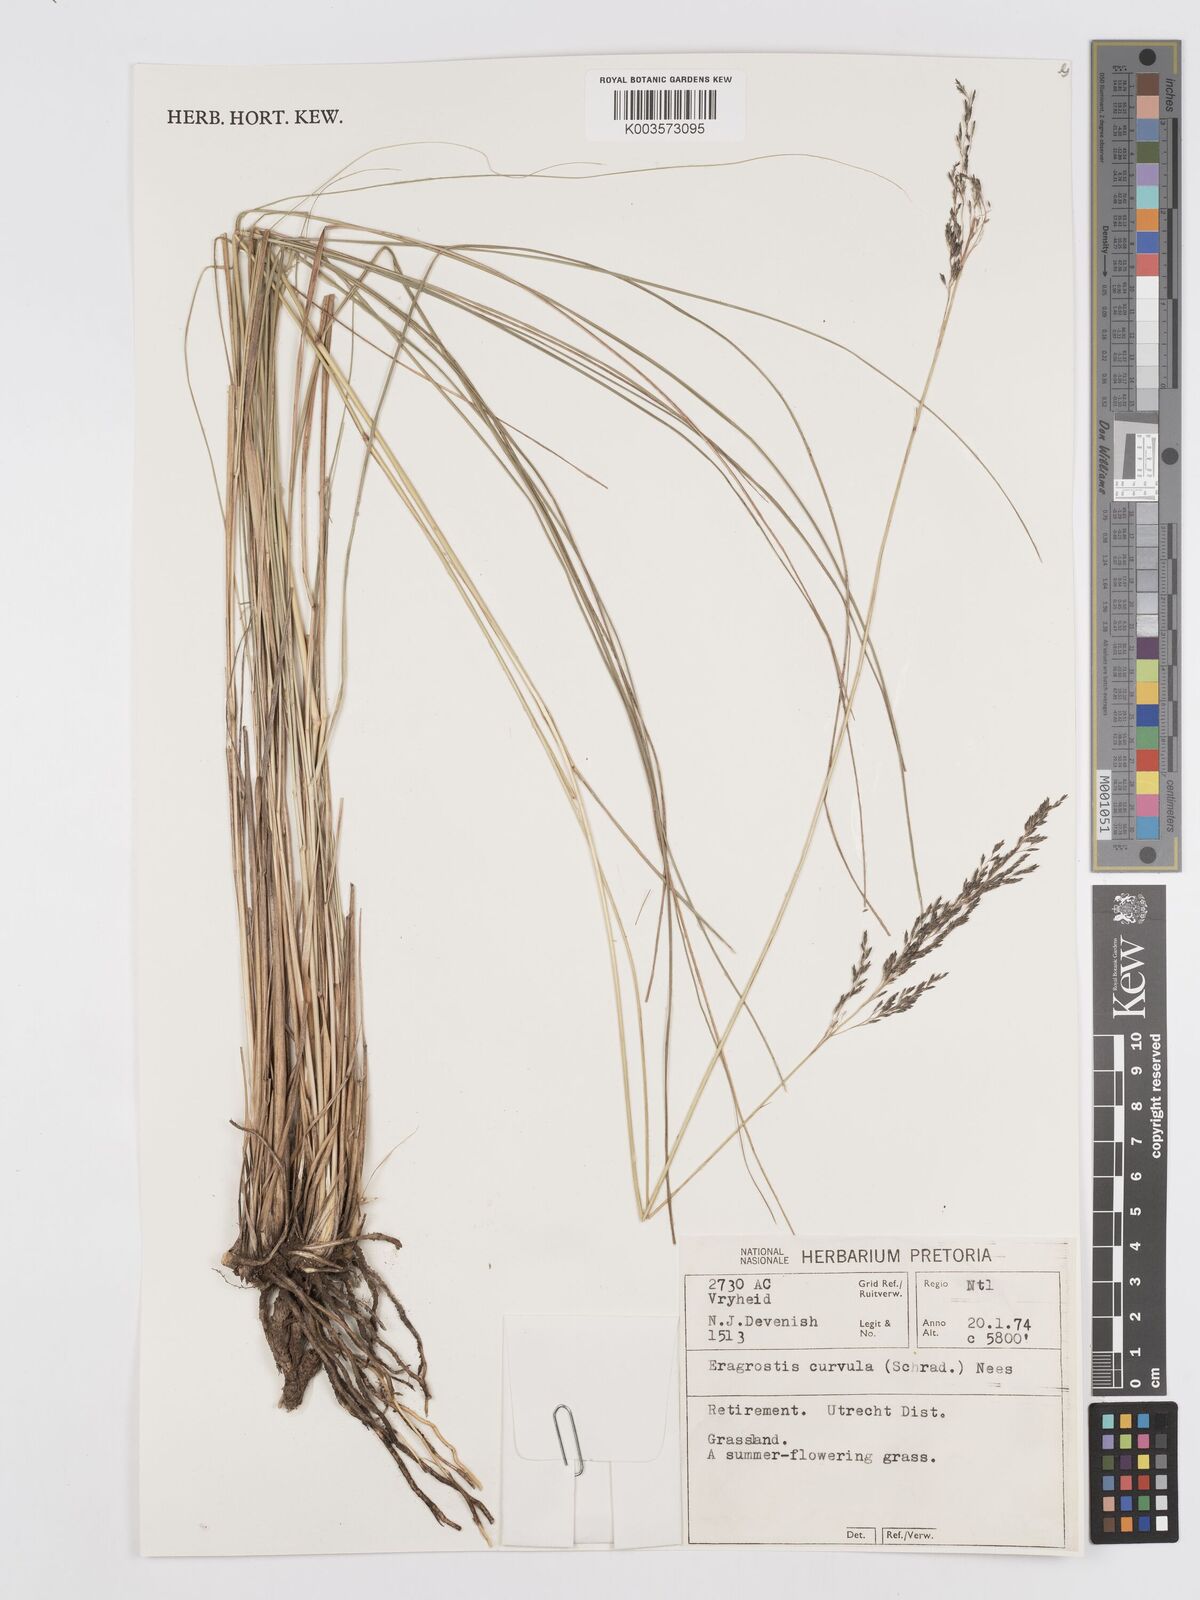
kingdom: Plantae
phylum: Tracheophyta
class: Liliopsida
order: Poales
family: Poaceae
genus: Eragrostis
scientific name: Eragrostis curvula
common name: African love-grass
